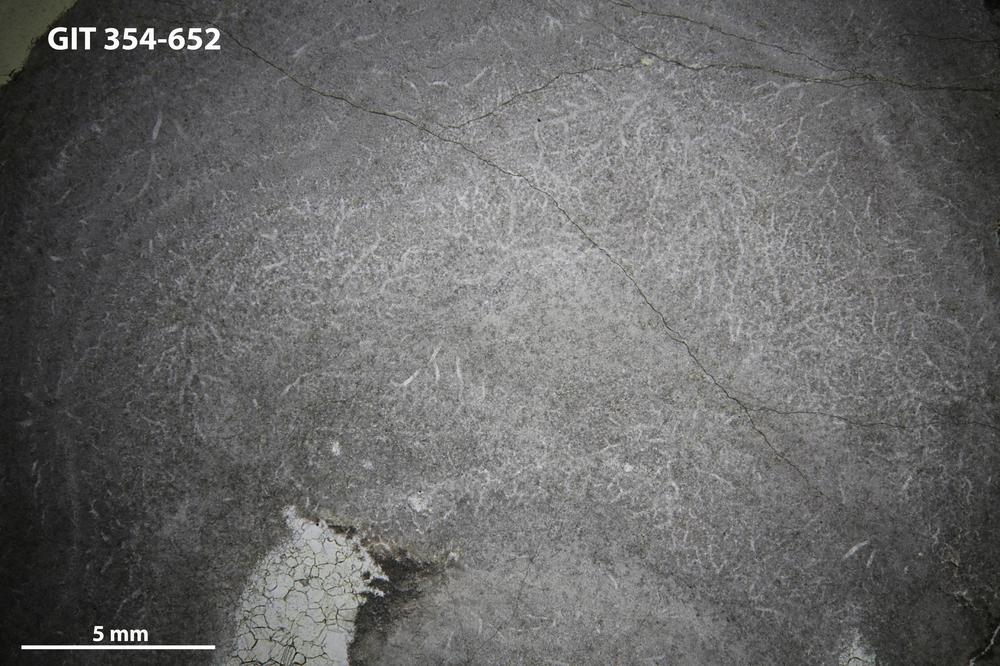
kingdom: Animalia
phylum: Porifera
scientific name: Porifera
